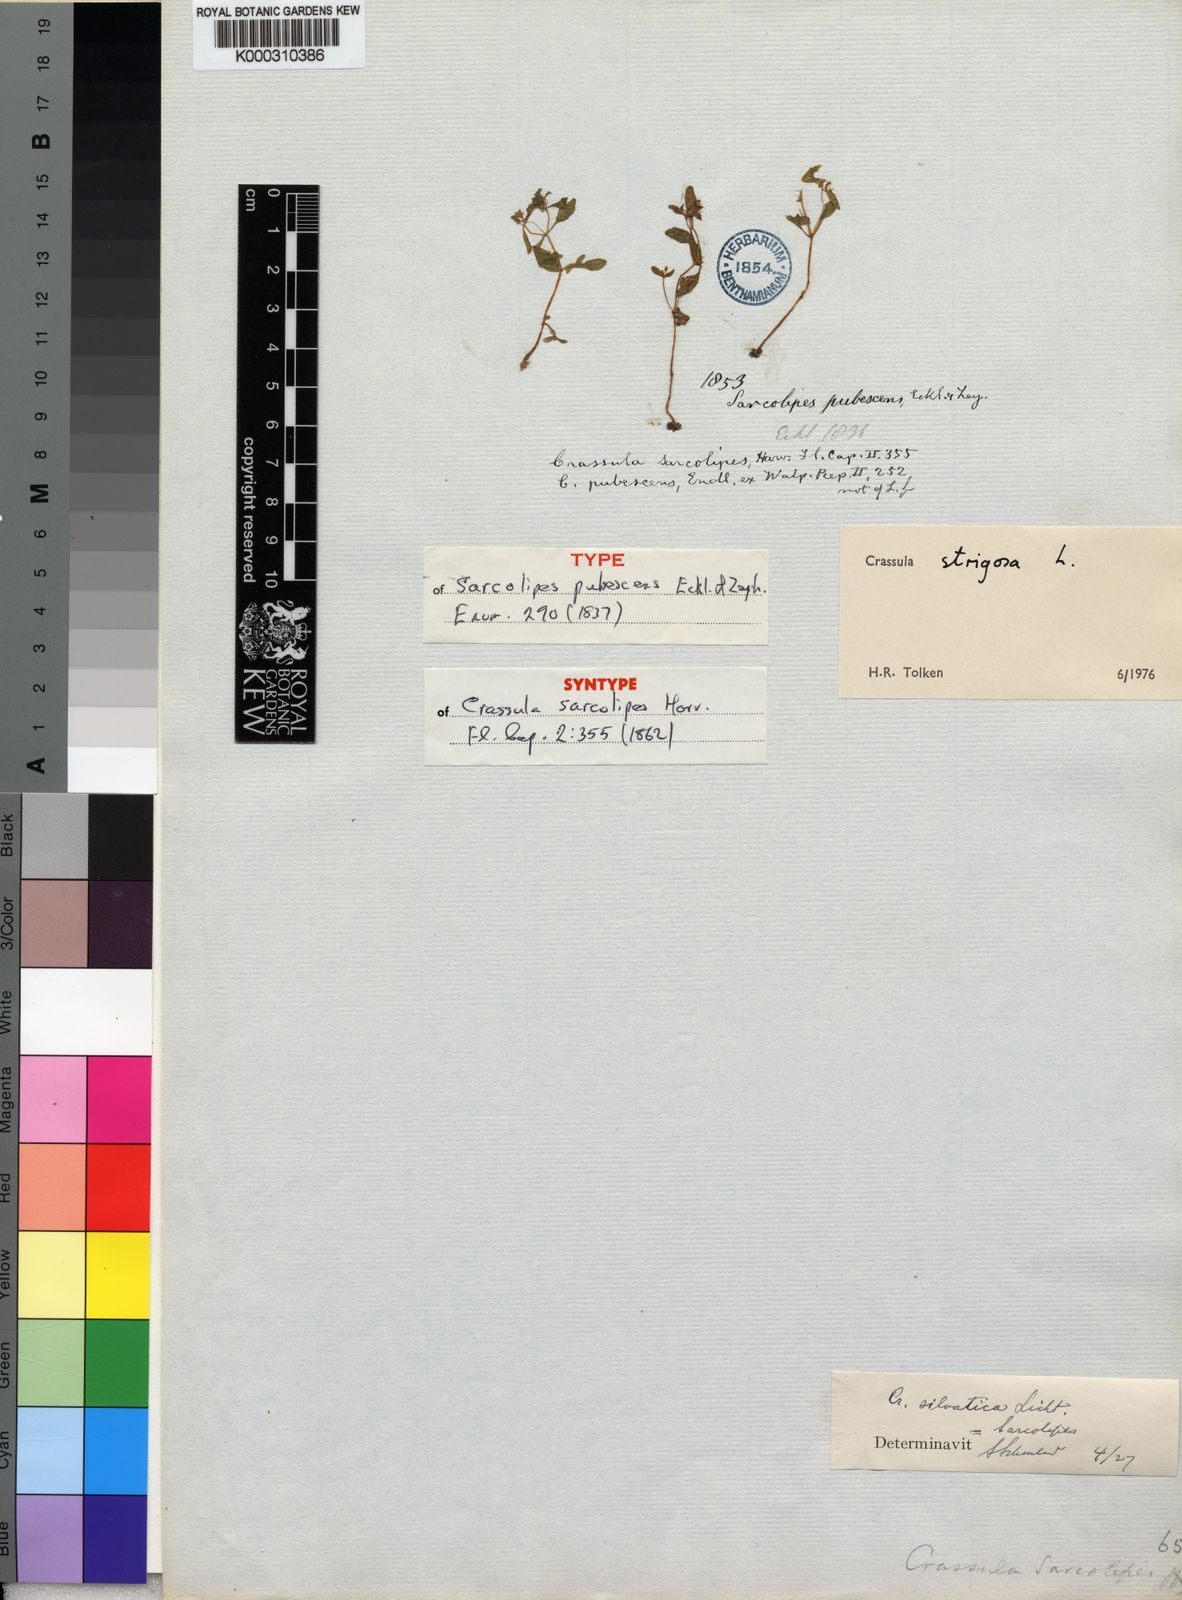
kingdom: Plantae
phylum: Tracheophyta
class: Magnoliopsida
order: Saxifragales
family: Crassulaceae
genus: Crassula
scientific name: Crassula strigosa
